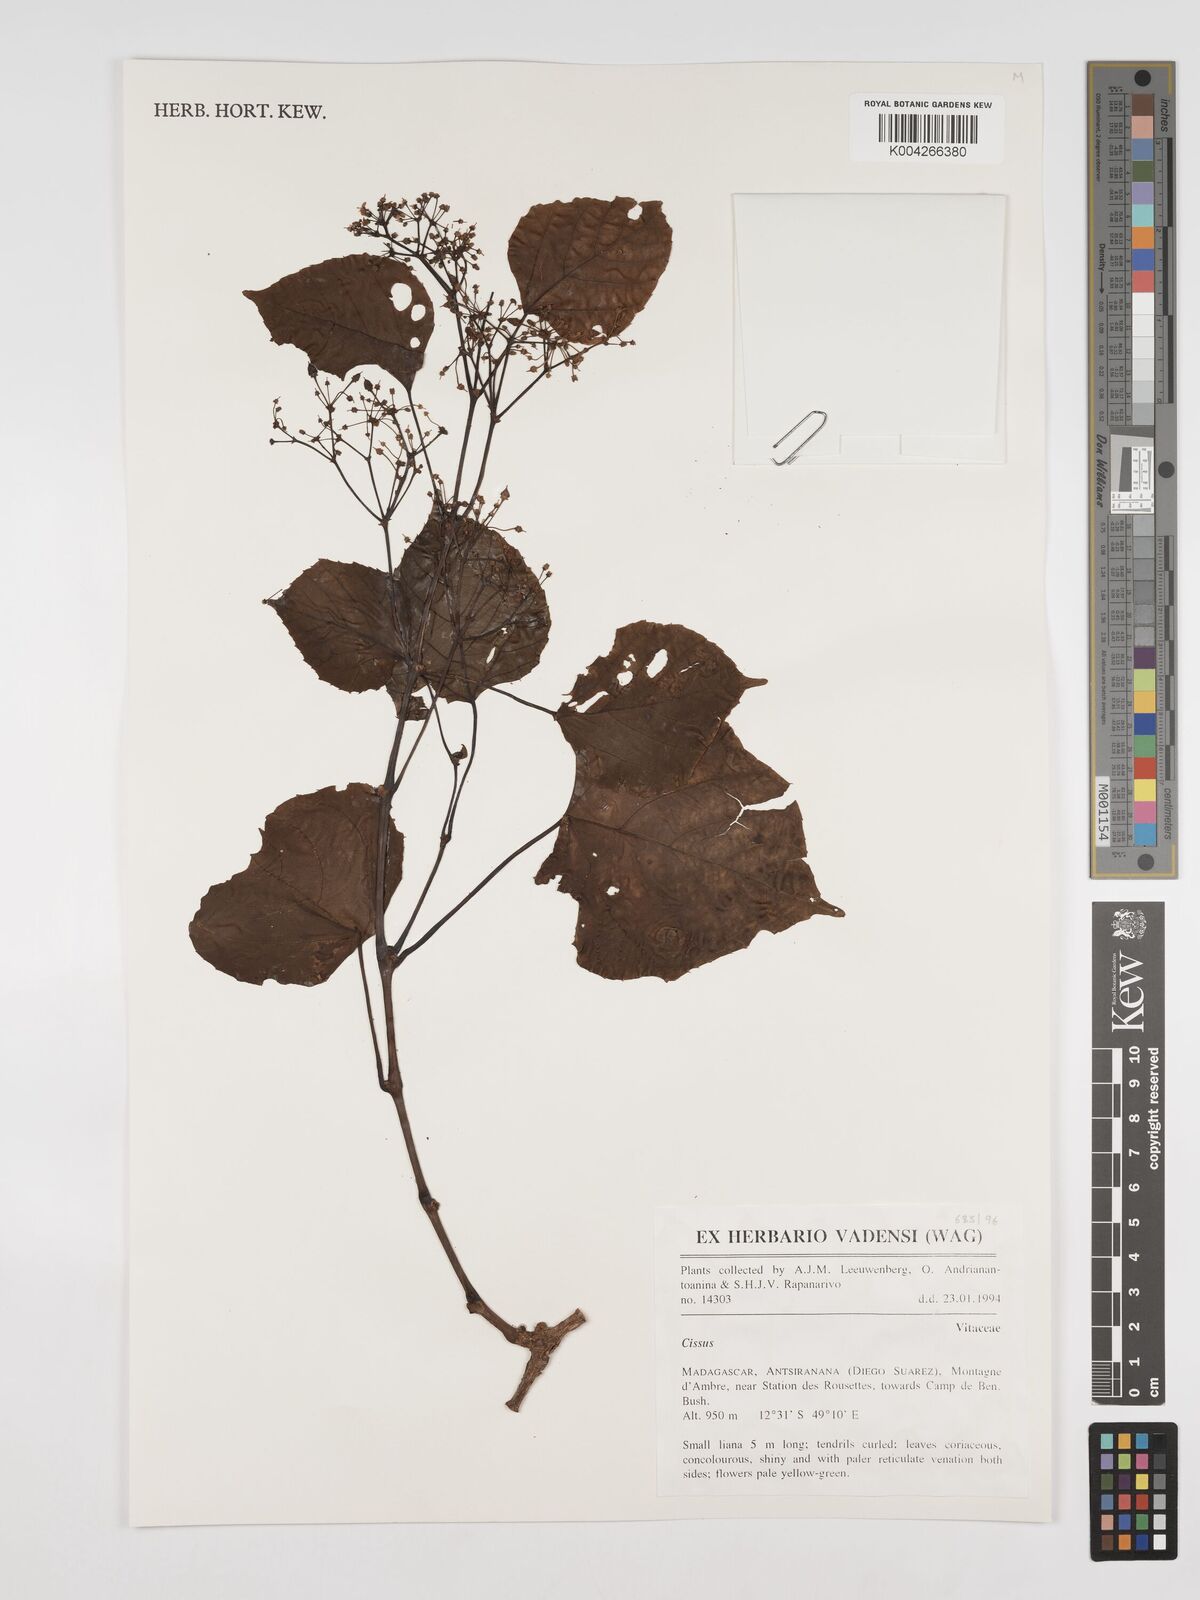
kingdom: Plantae
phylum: Tracheophyta
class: Magnoliopsida
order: Vitales
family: Vitaceae
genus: Cissus
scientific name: Cissus
